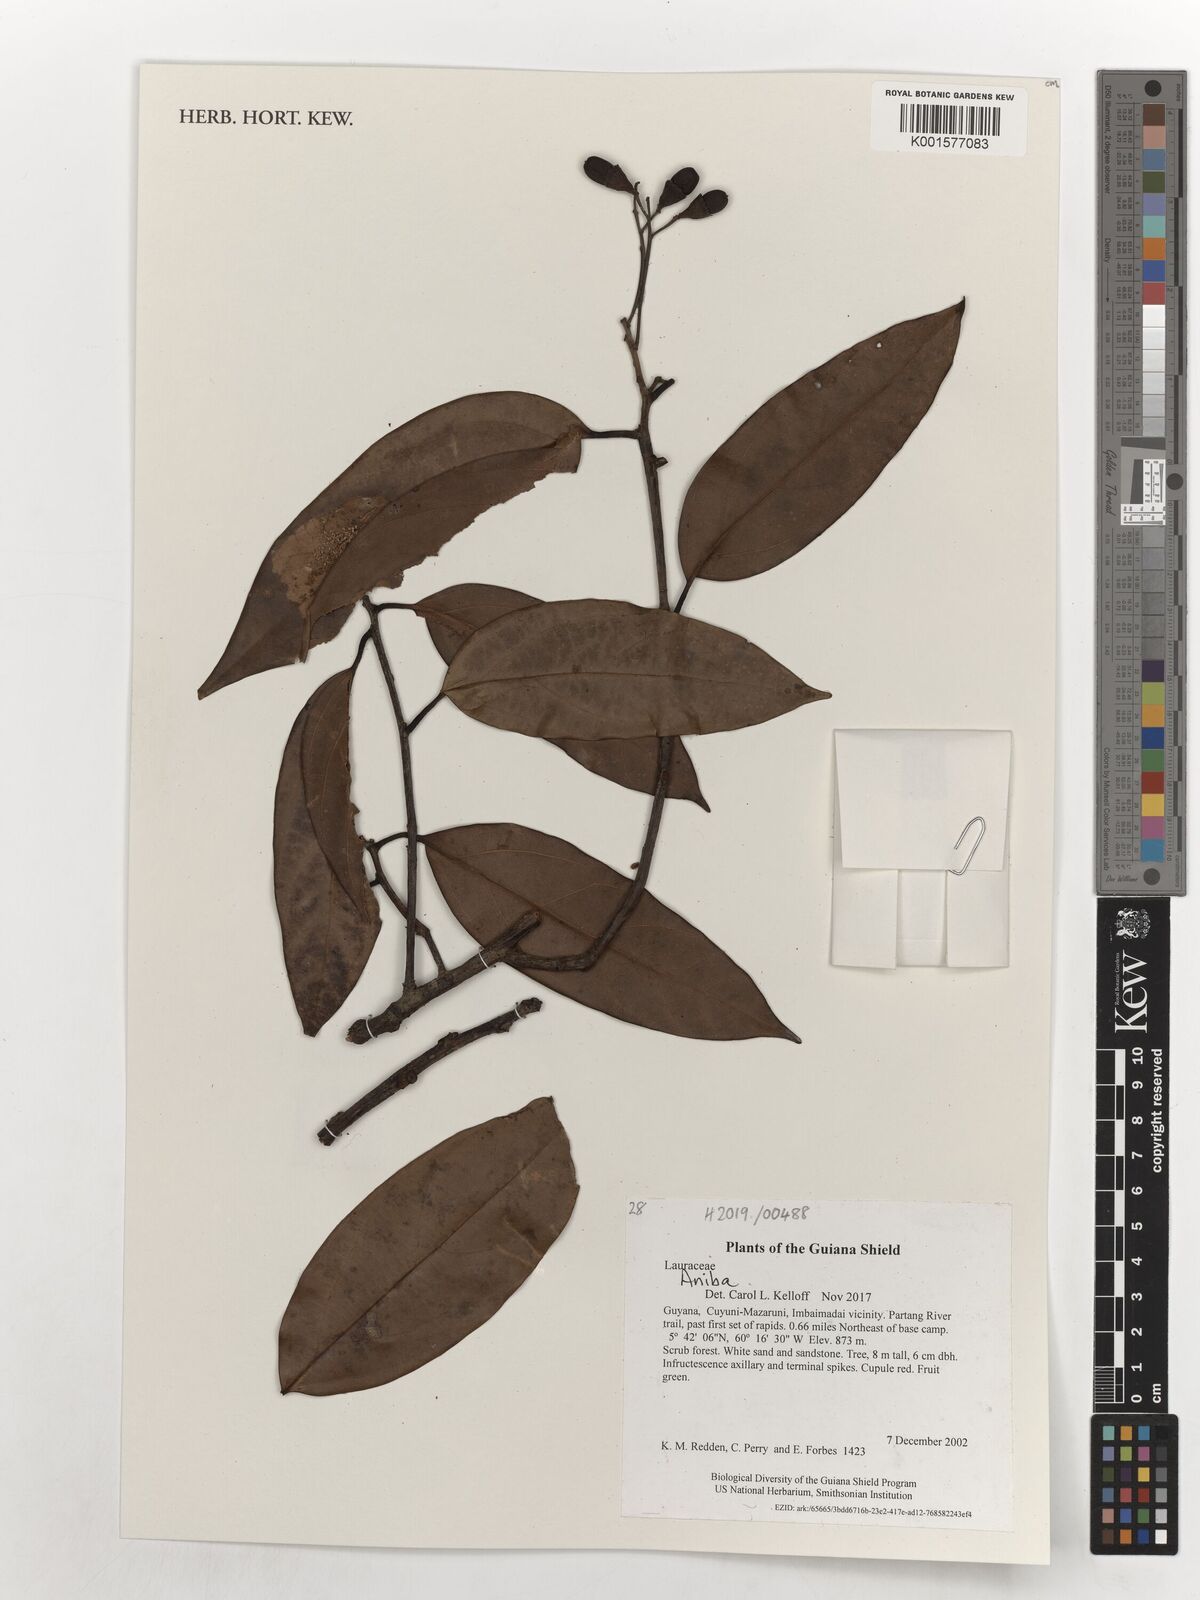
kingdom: Plantae
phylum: Tracheophyta
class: Magnoliopsida
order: Laurales
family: Lauraceae
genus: Aniba
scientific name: Aniba
